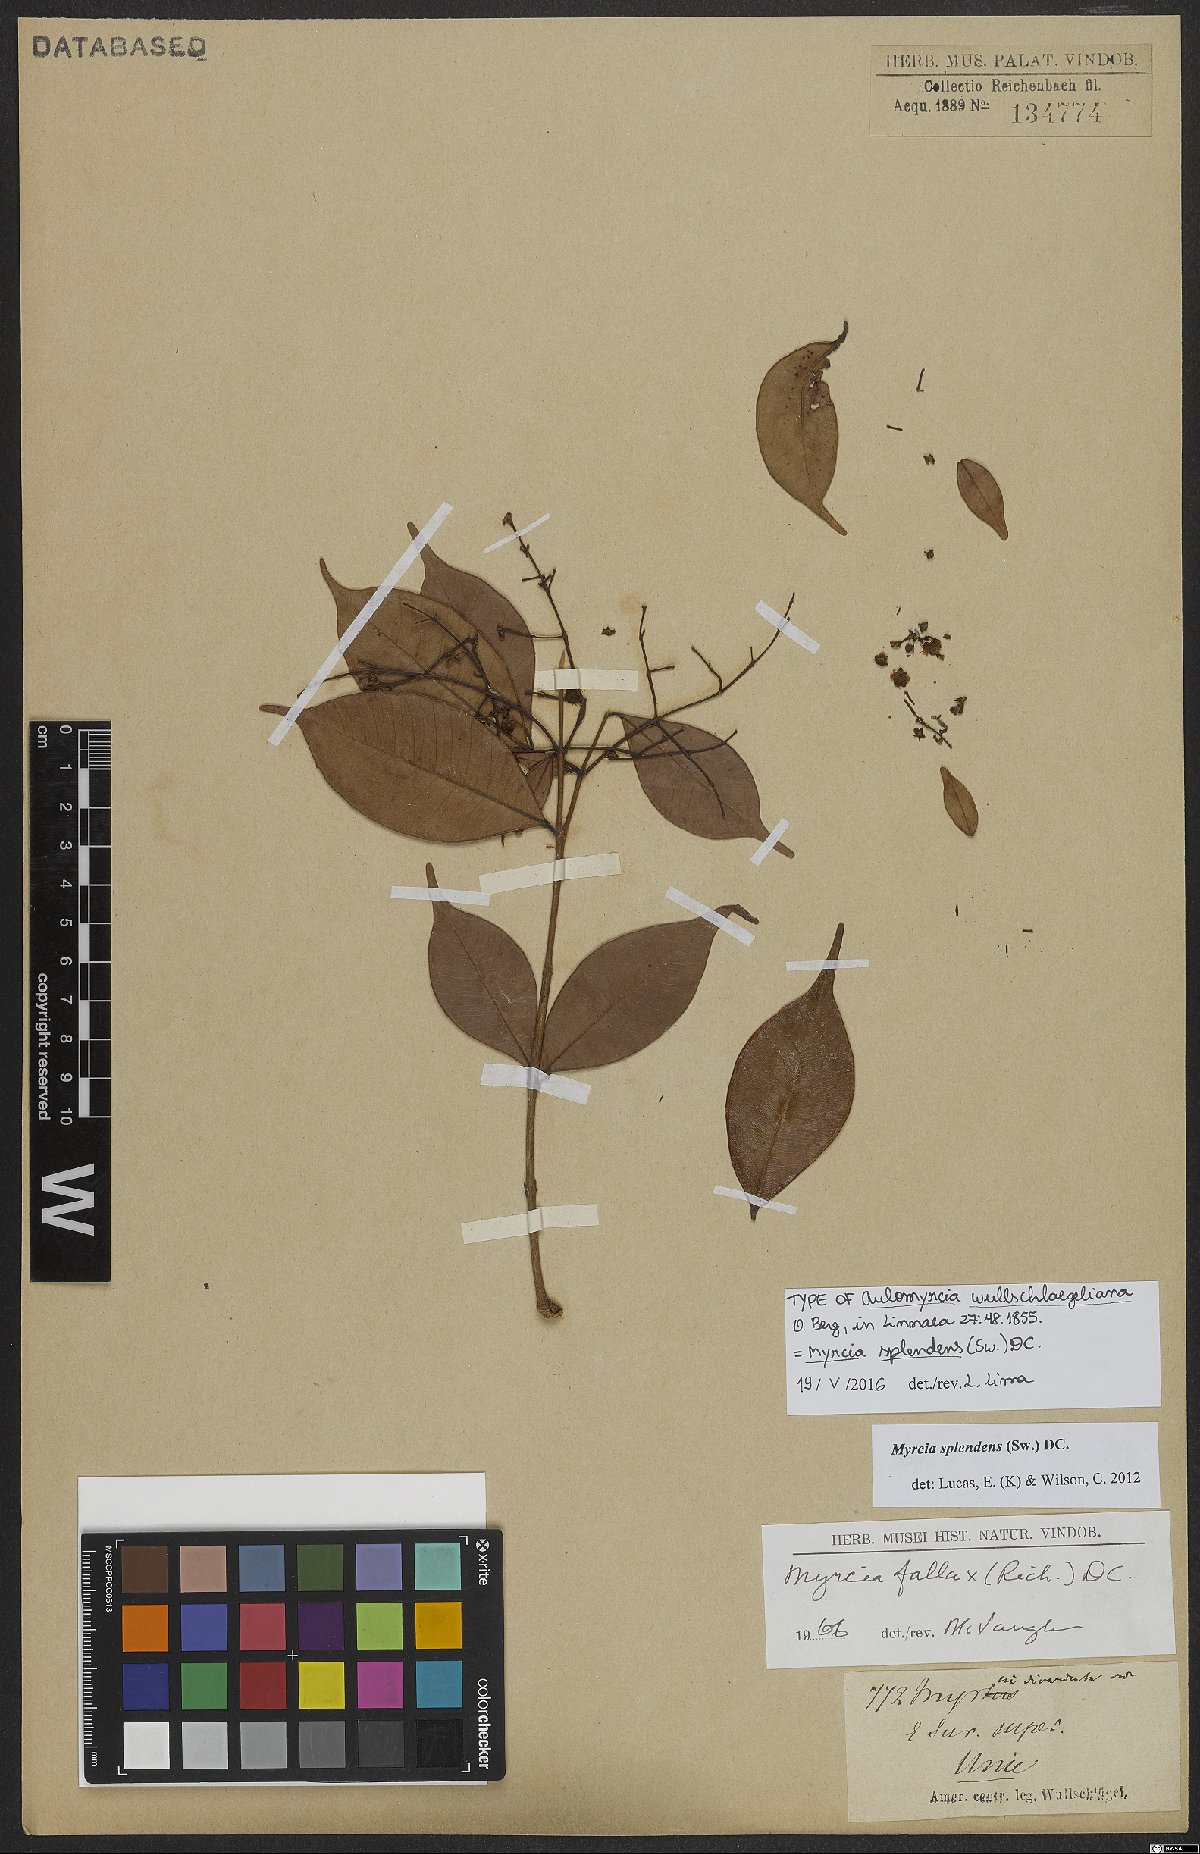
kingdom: Plantae
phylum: Tracheophyta
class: Magnoliopsida
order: Myrtales
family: Myrtaceae
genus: Myrcia
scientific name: Myrcia splendens
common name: Surinam cherry
